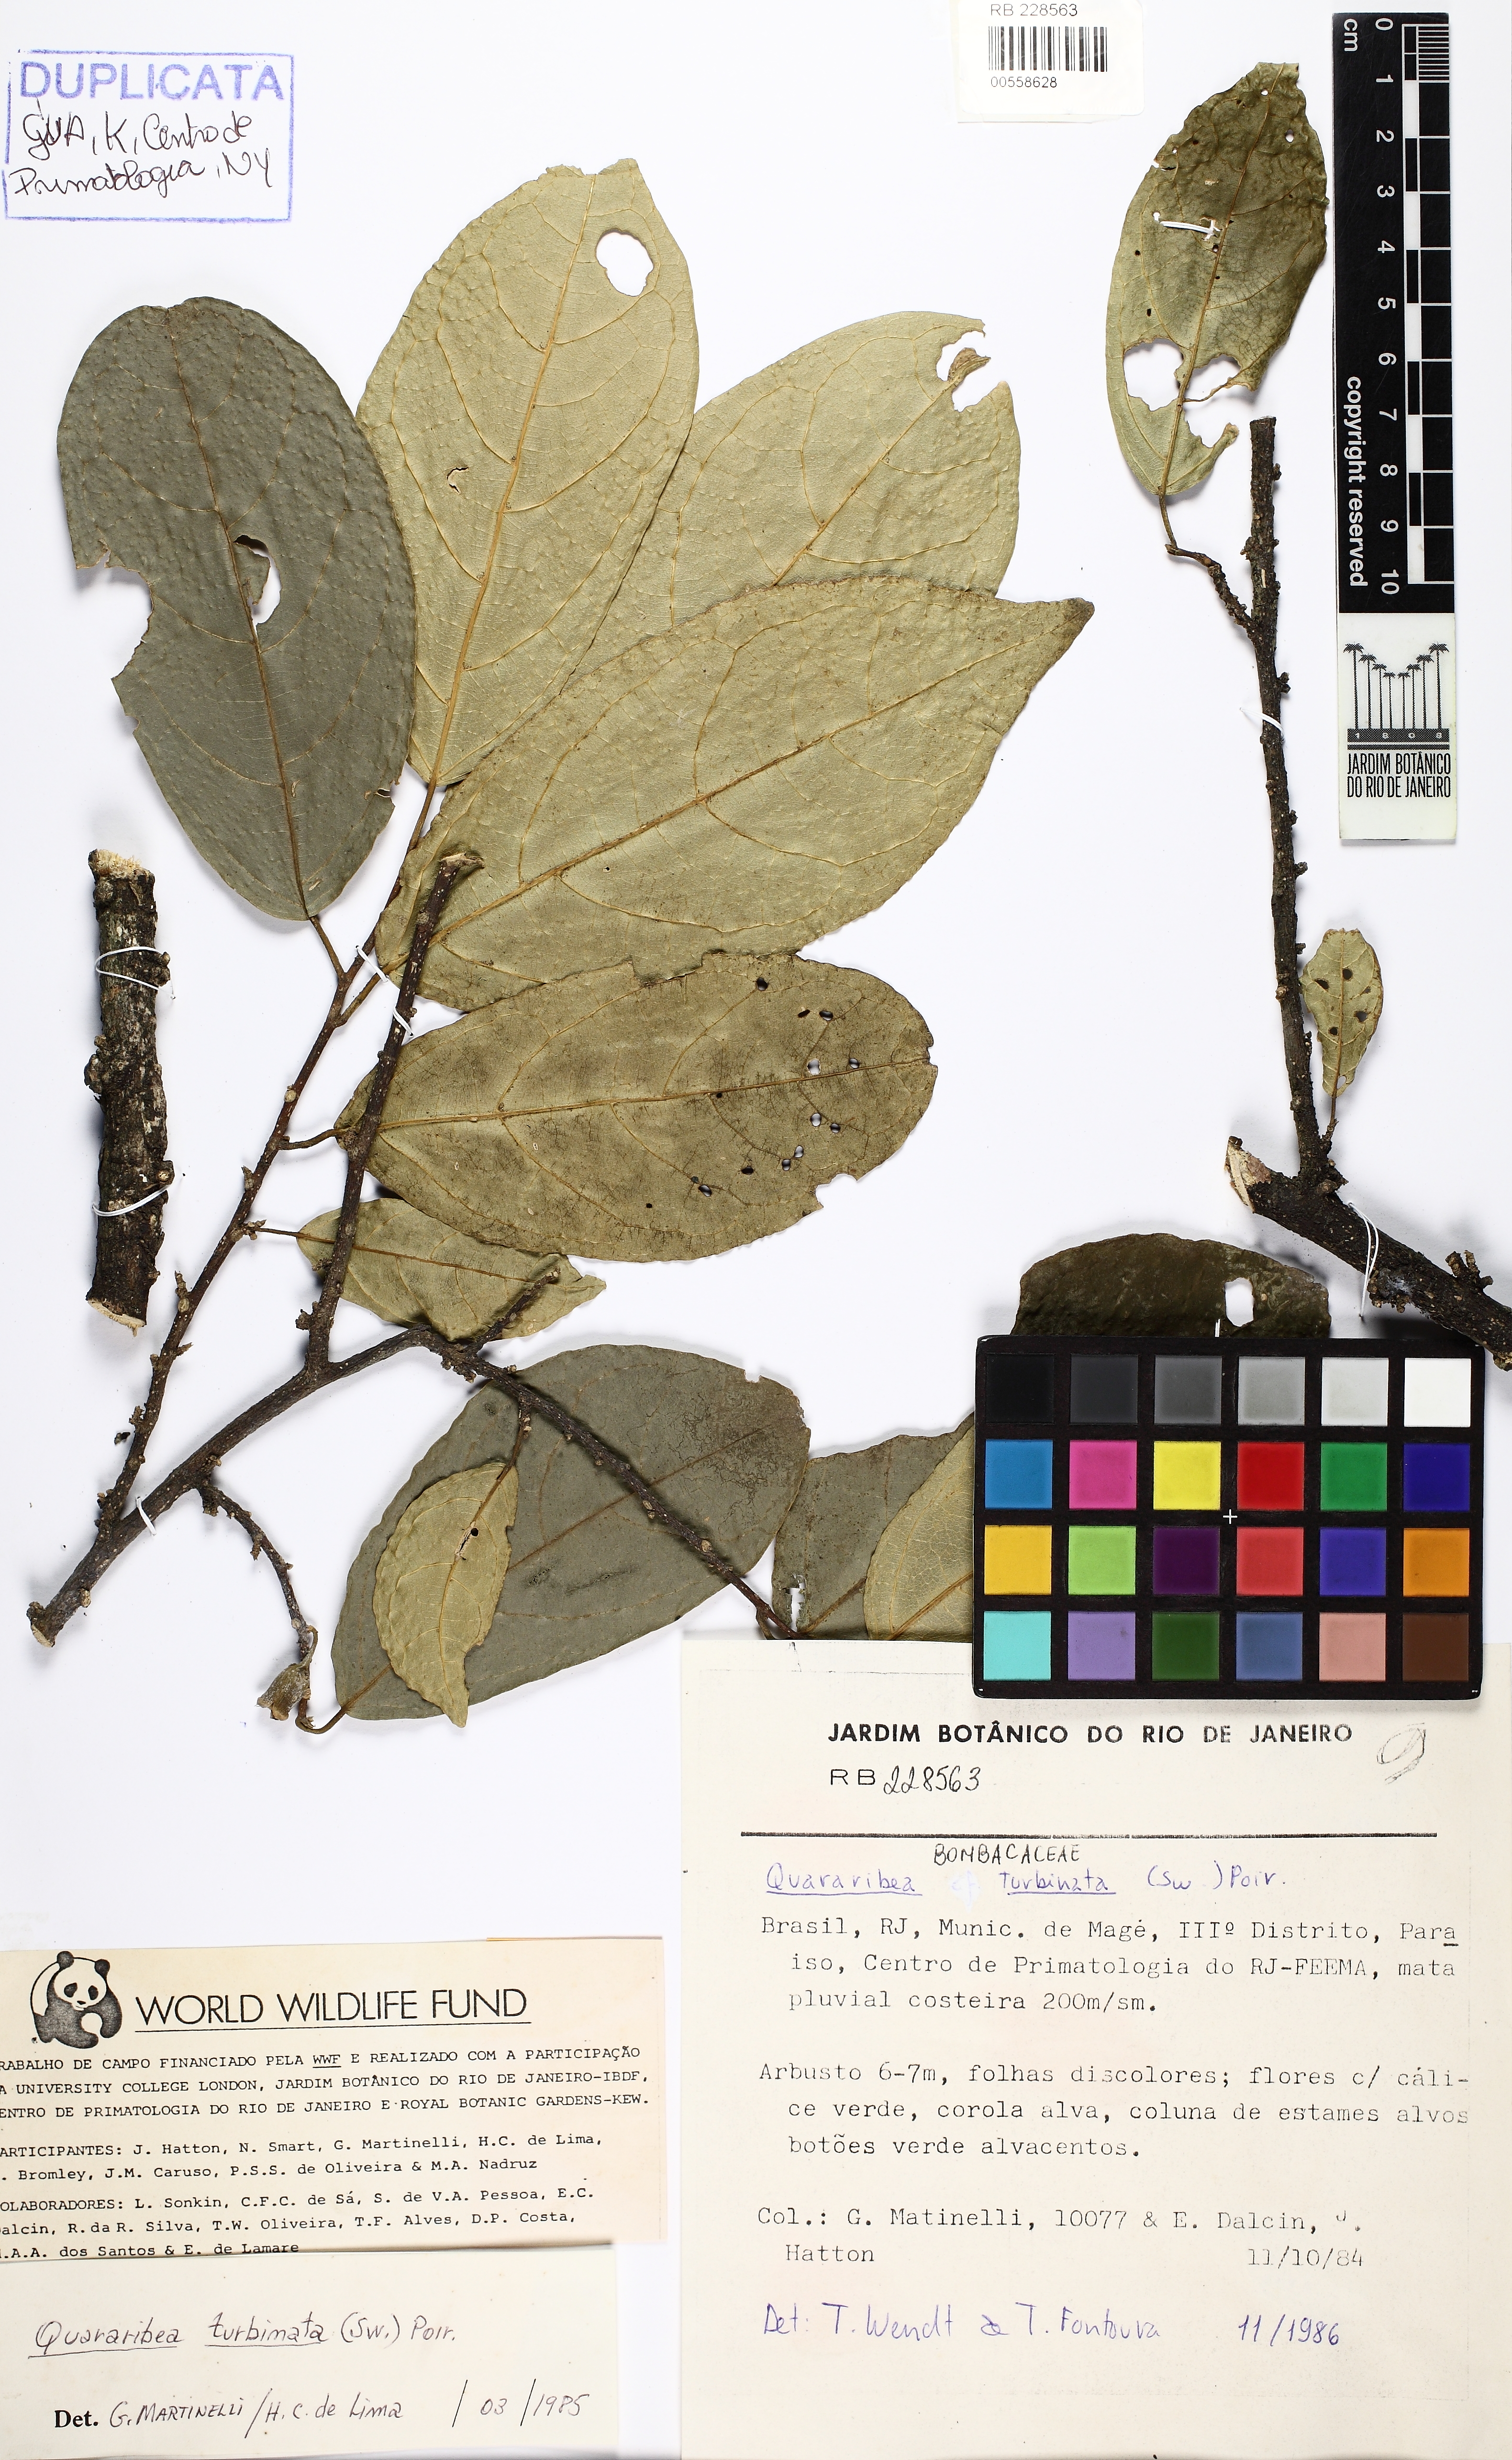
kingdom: Plantae
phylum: Tracheophyta
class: Magnoliopsida
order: Malvales
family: Malvaceae
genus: Quararibea
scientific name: Quararibea turbinata
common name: Swizzlestick-tree
